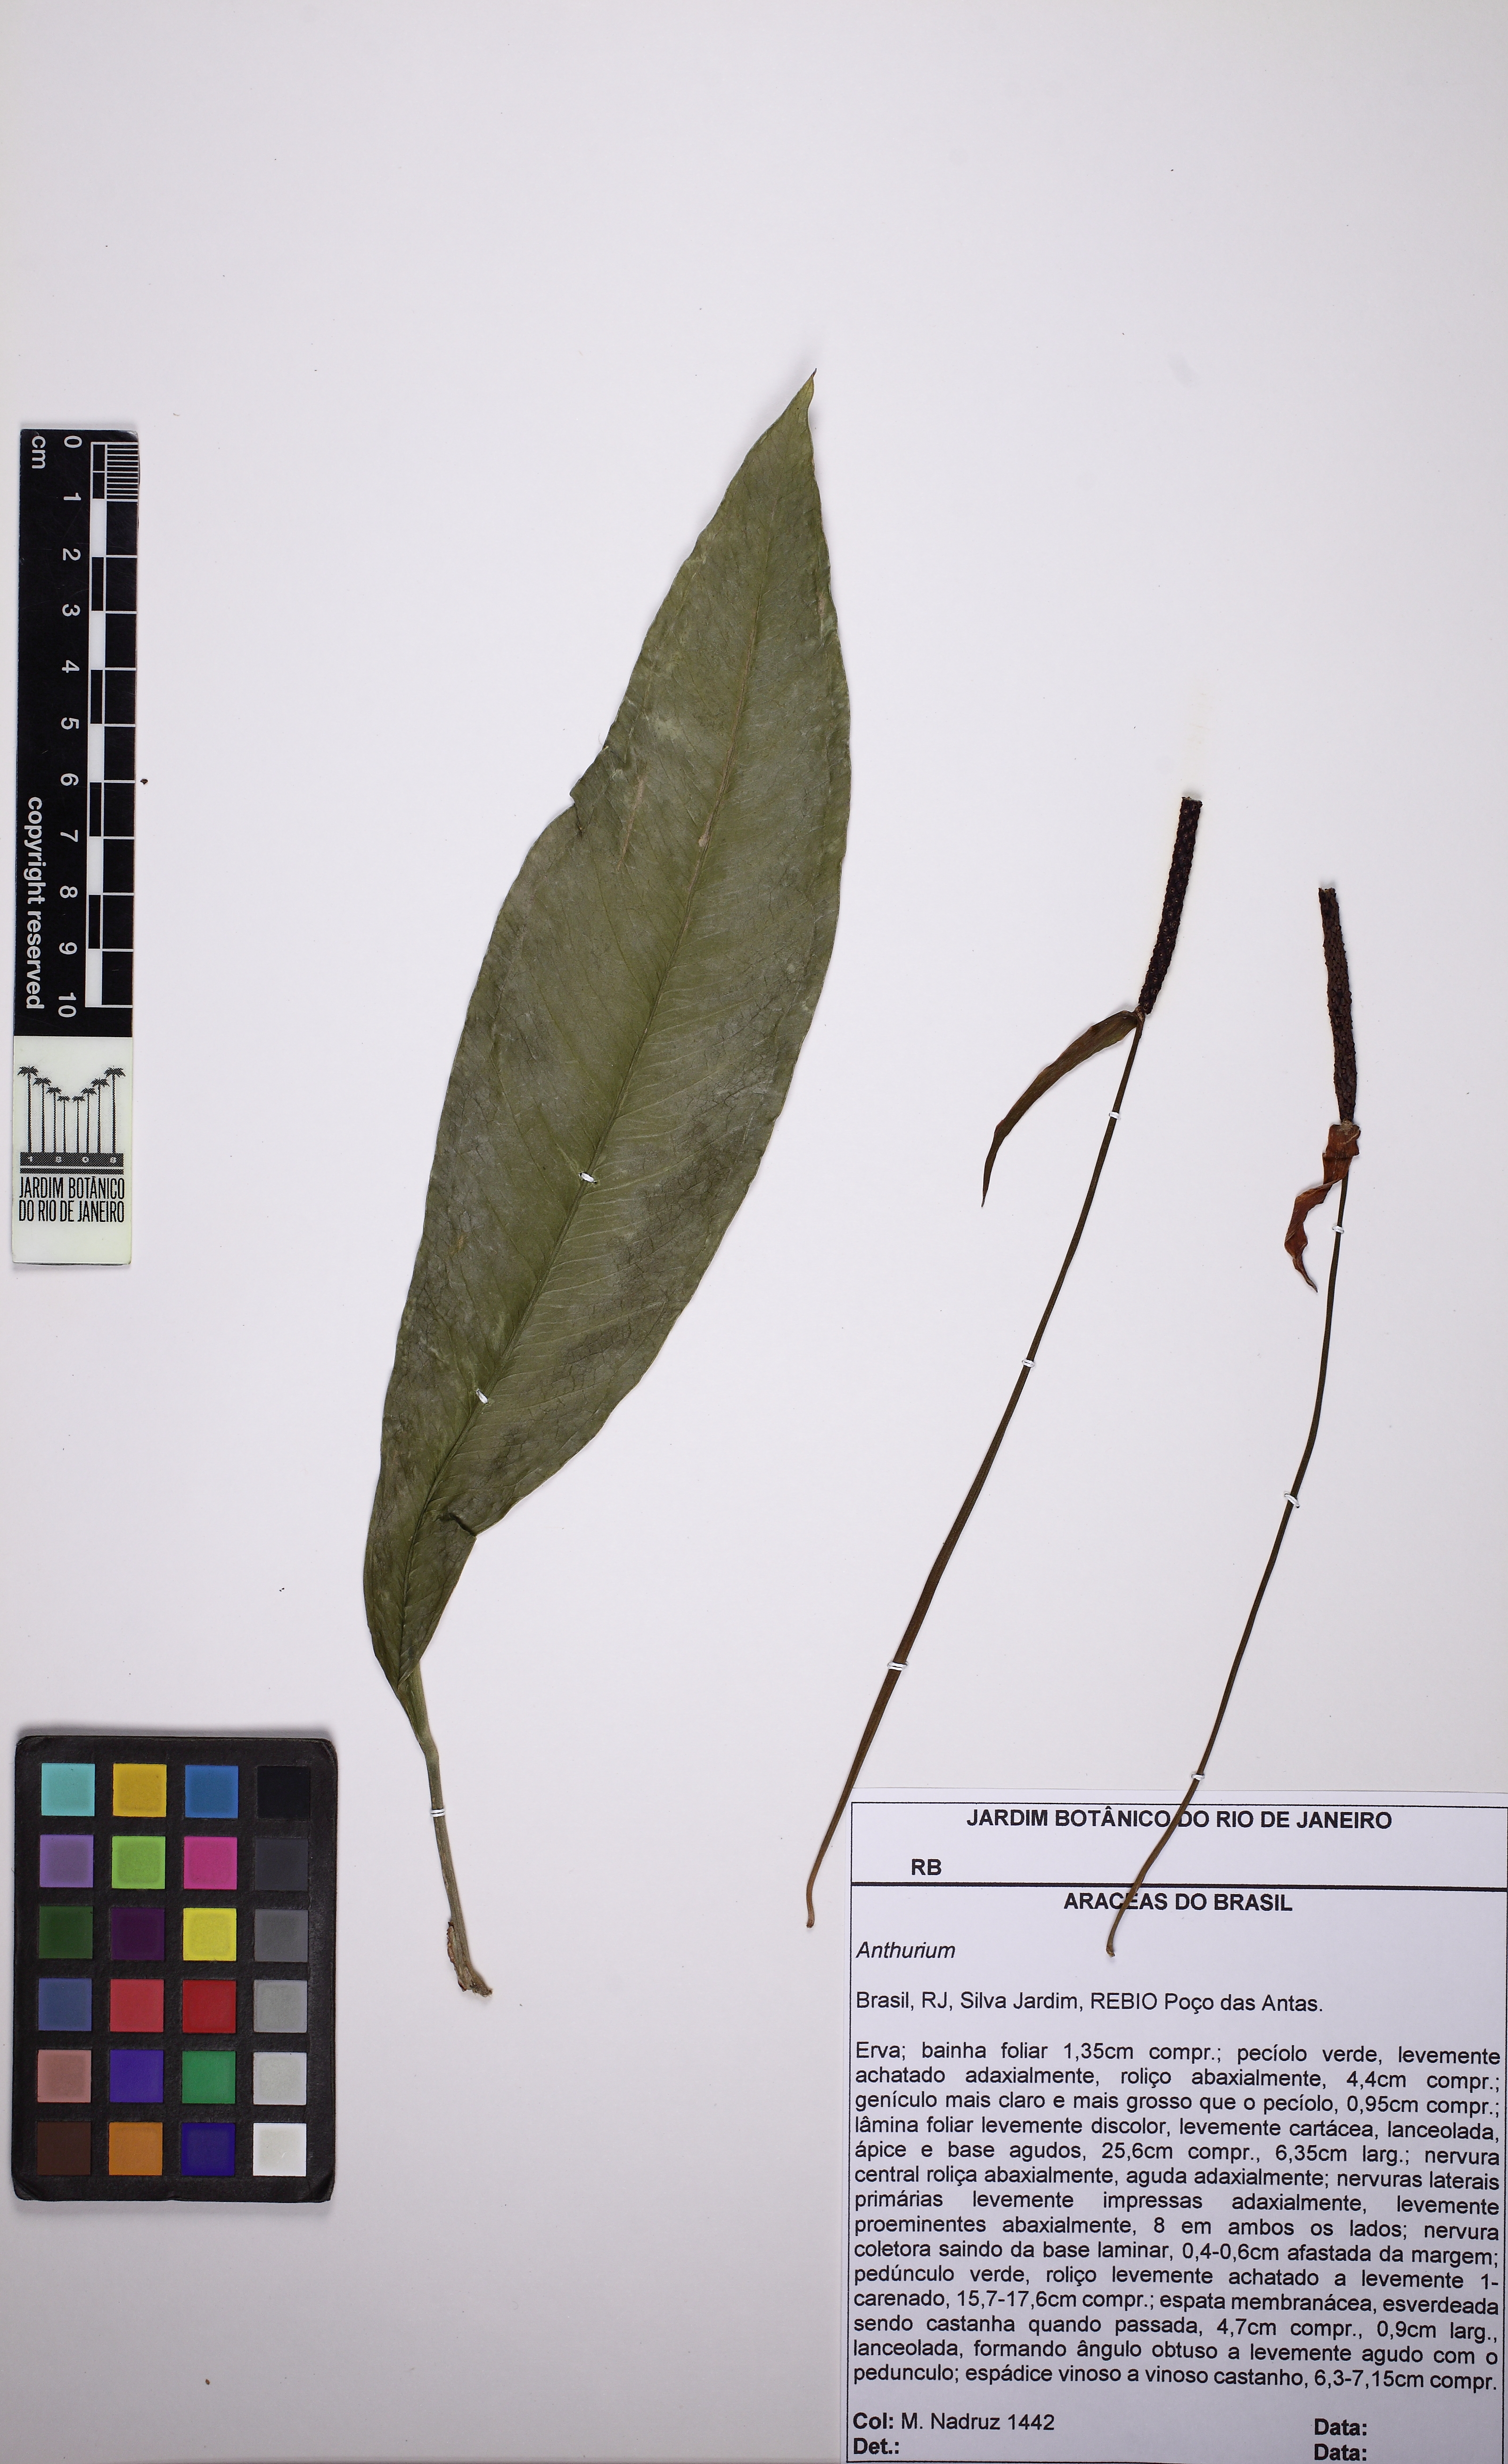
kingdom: Plantae
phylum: Tracheophyta
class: Liliopsida
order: Alismatales
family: Araceae
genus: Anthurium
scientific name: Anthurium
